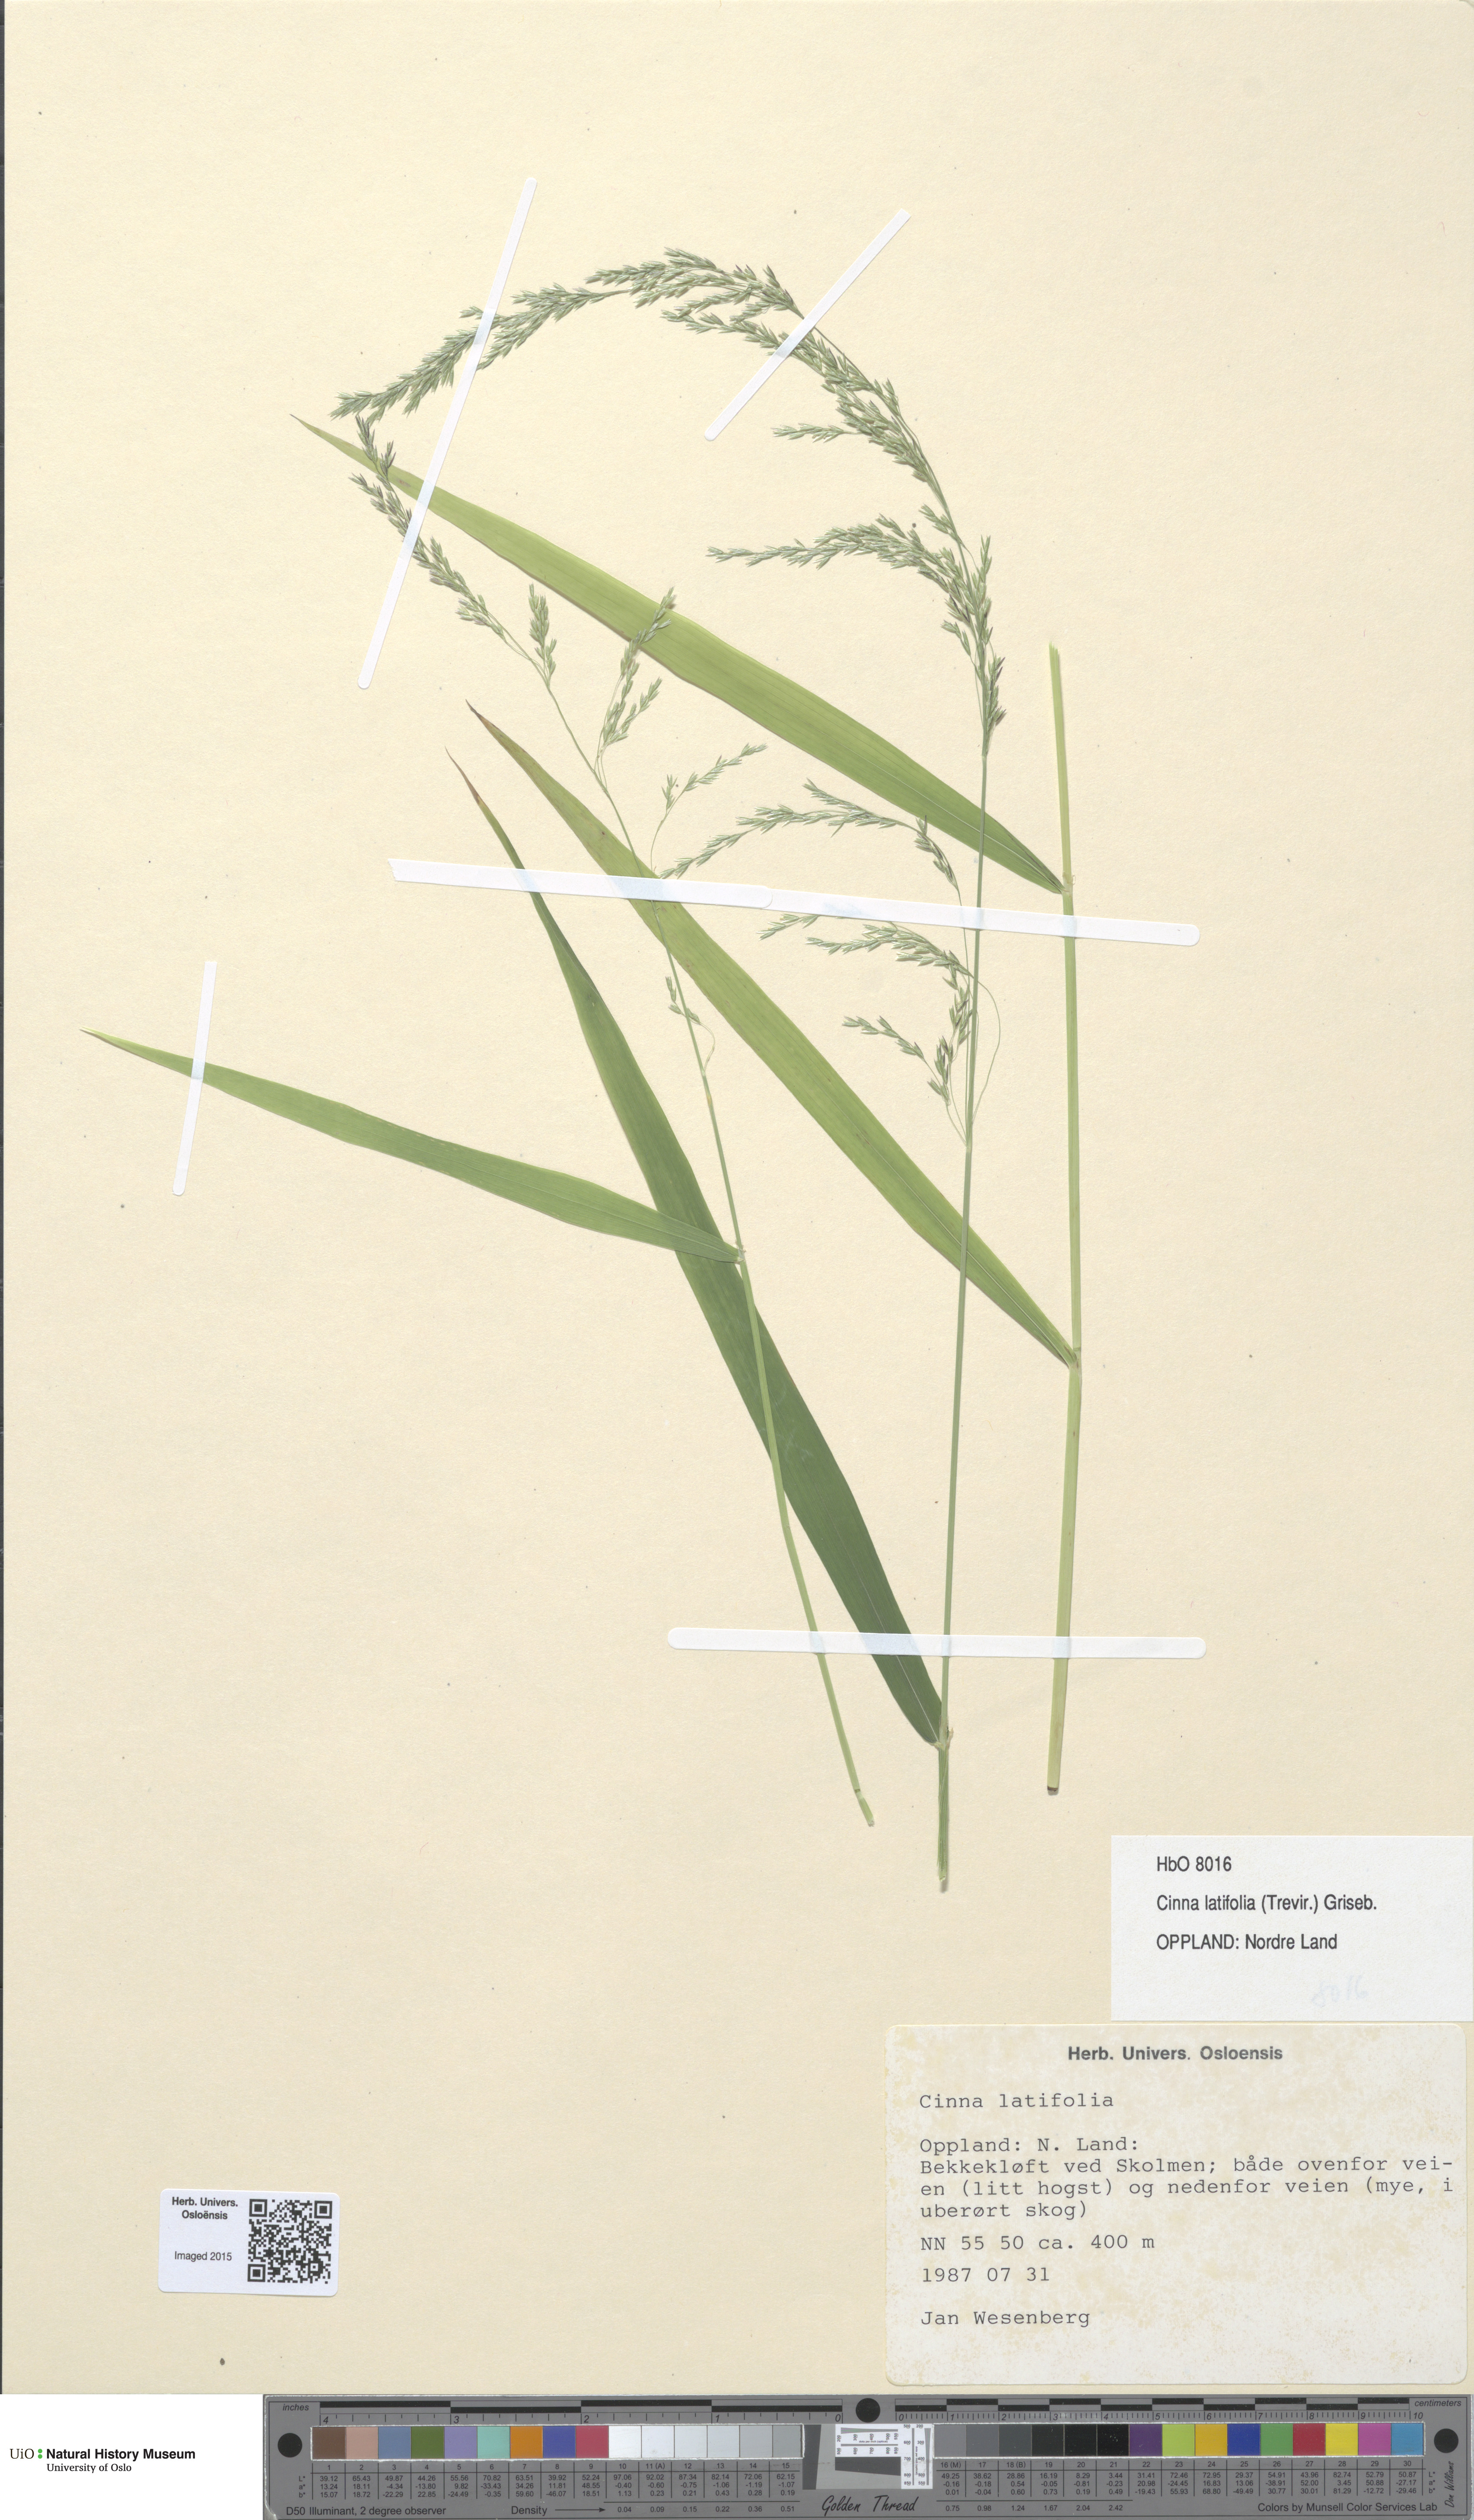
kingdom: Plantae
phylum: Tracheophyta
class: Liliopsida
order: Poales
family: Poaceae
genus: Cinna
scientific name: Cinna latifolia
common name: Drooping woodreed
